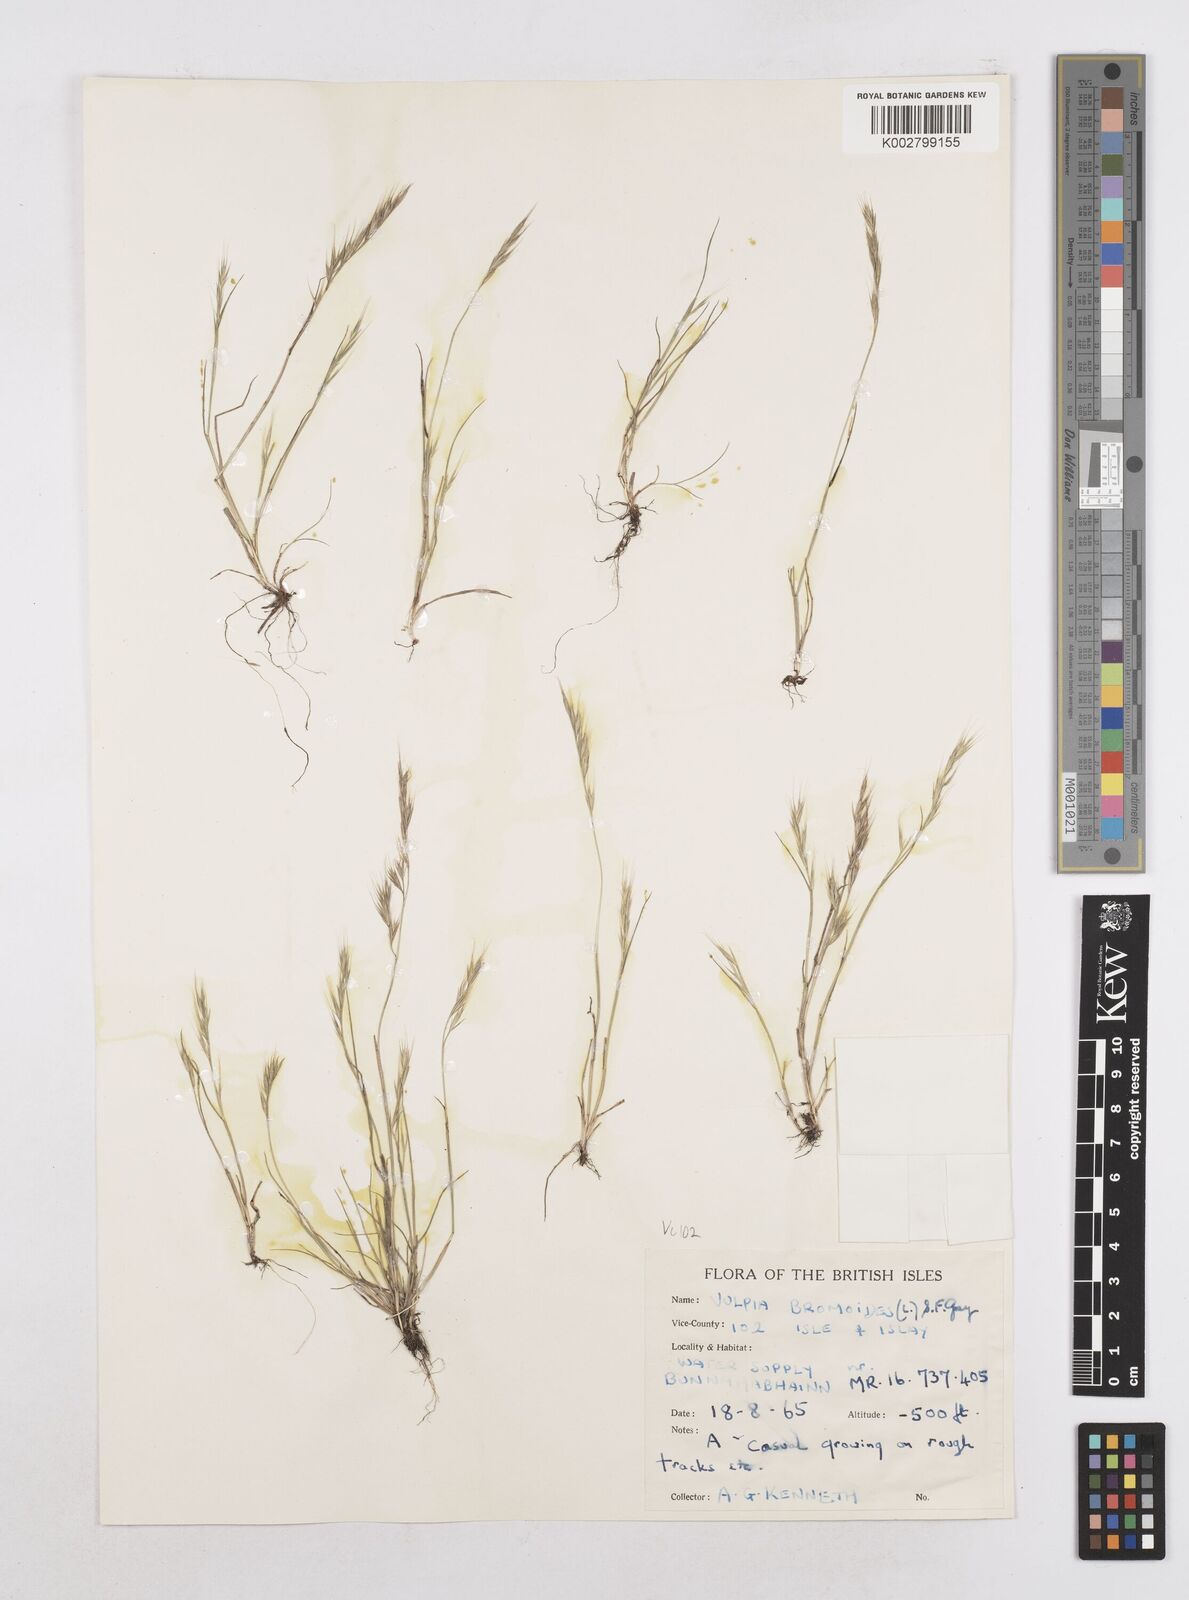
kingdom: Plantae
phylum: Tracheophyta
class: Liliopsida
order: Poales
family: Poaceae
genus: Festuca
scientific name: Festuca bromoides
